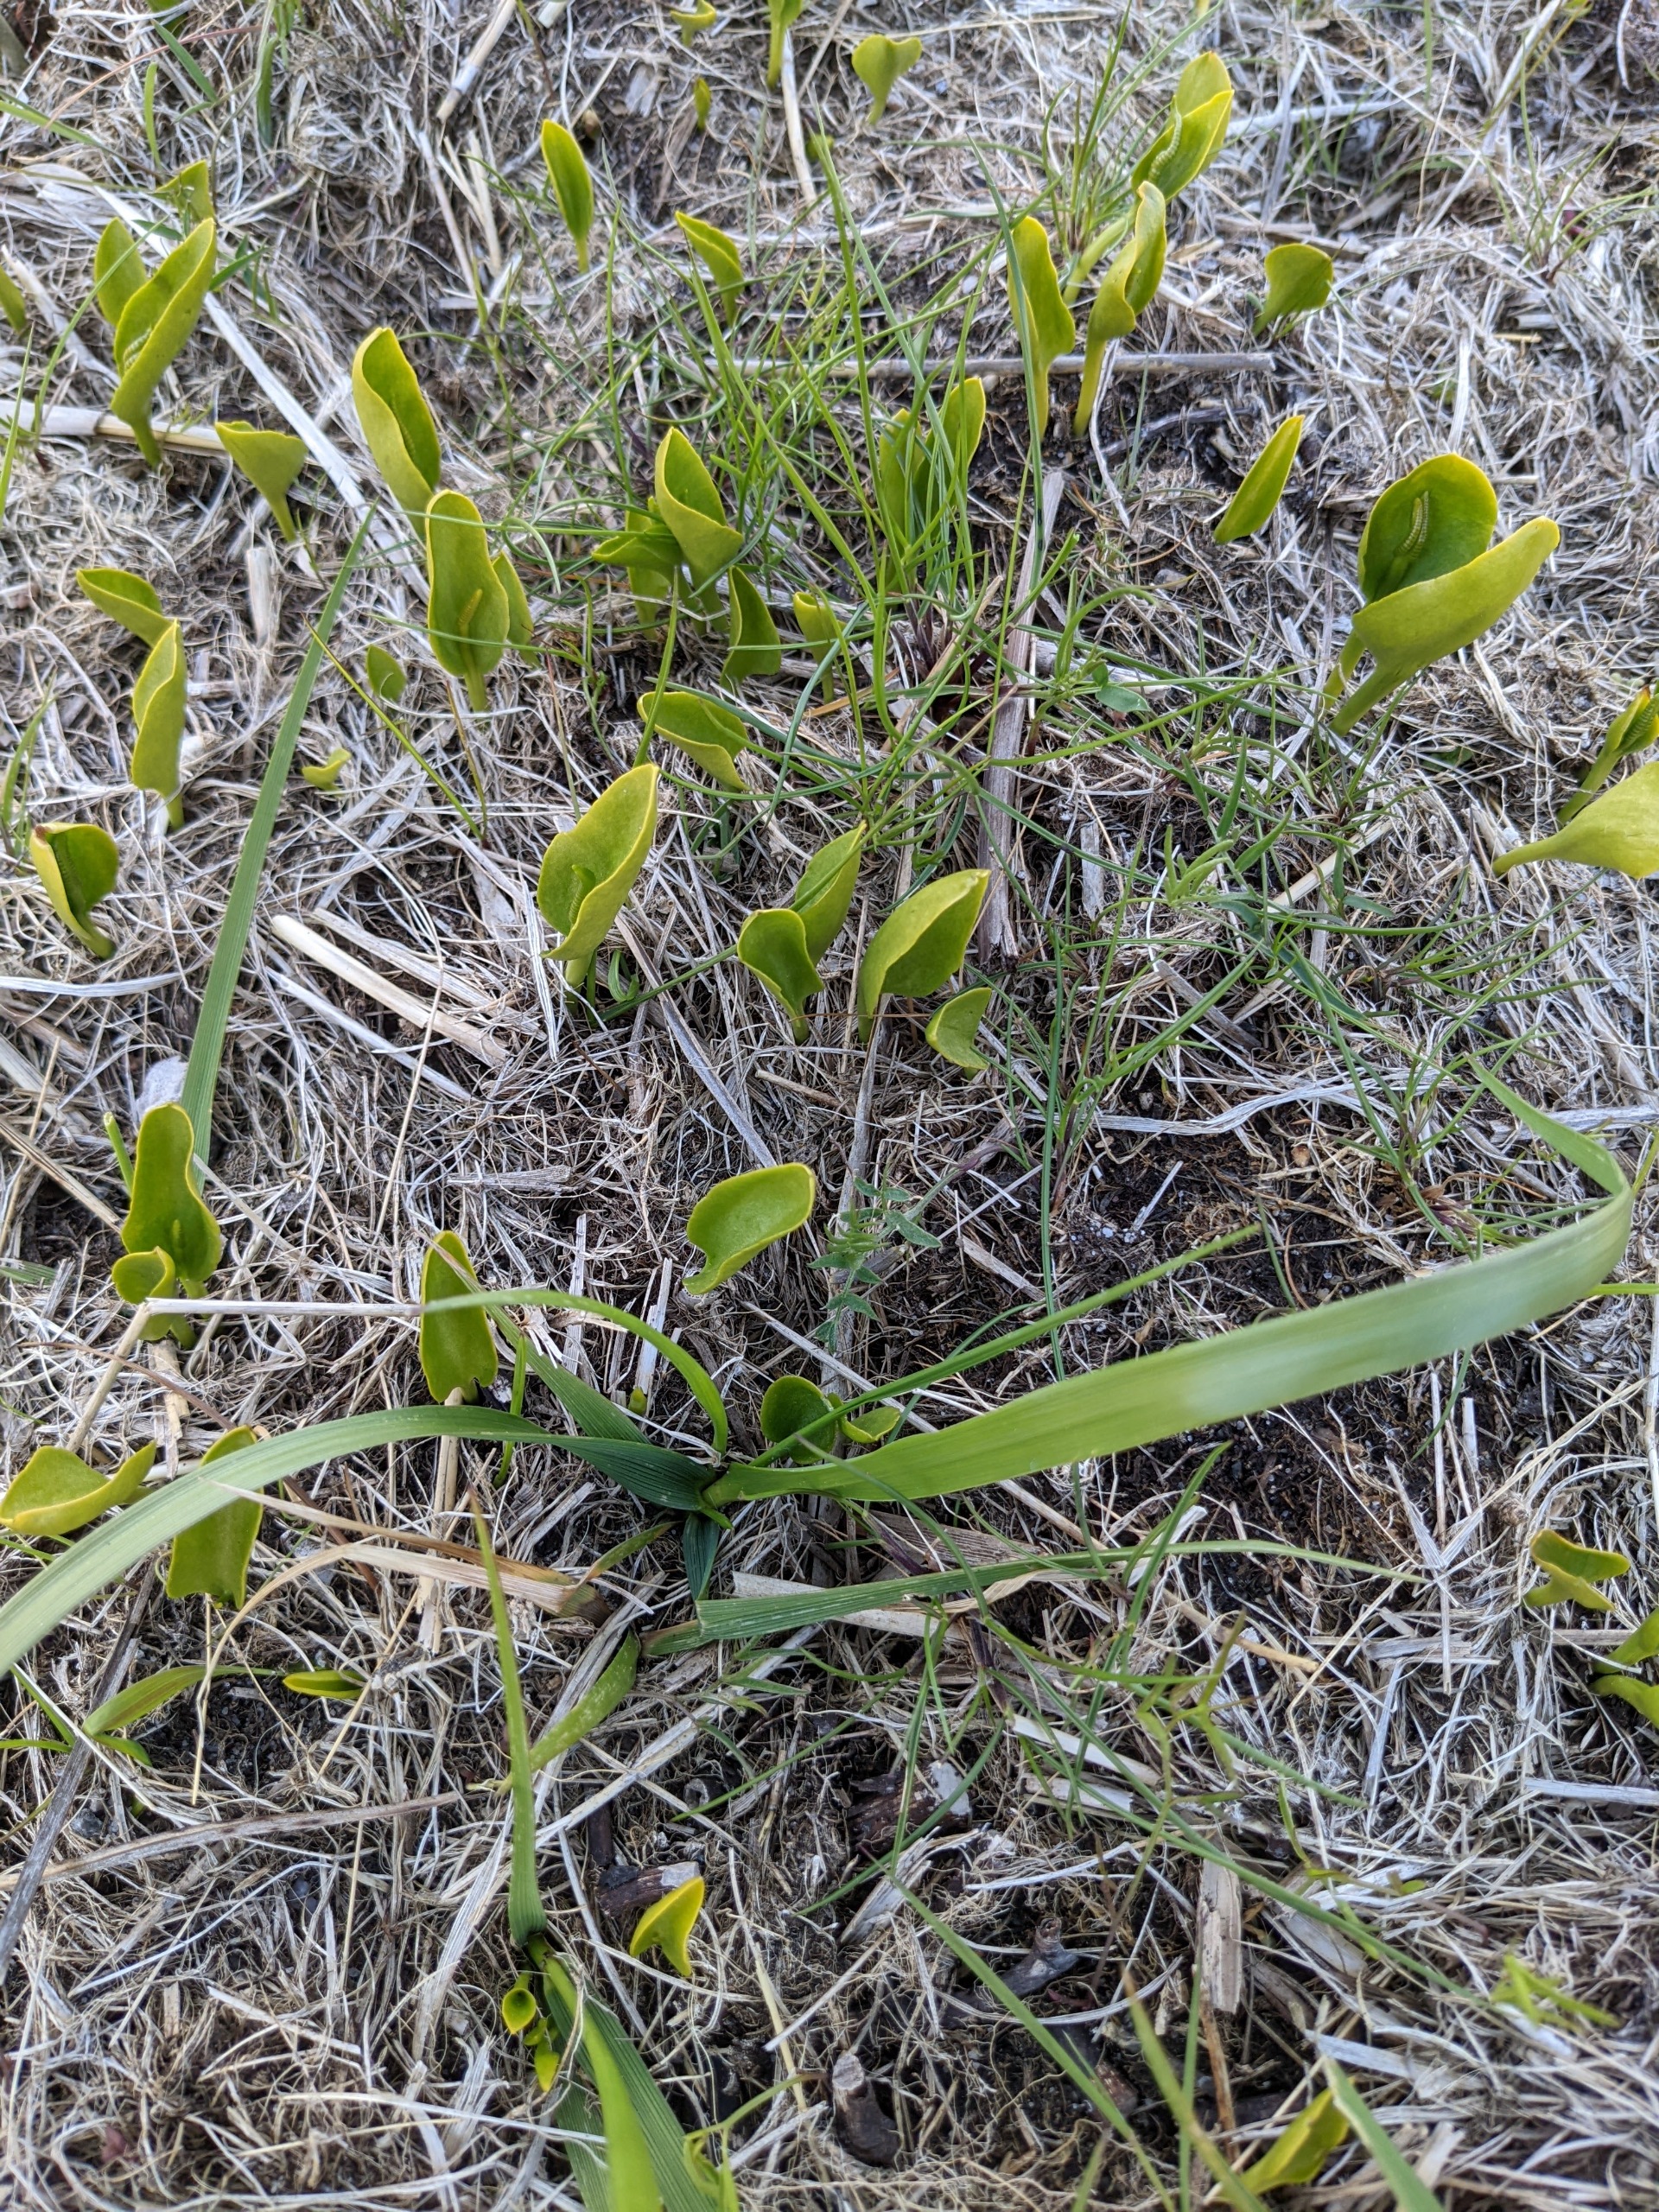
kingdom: Plantae
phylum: Tracheophyta
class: Polypodiopsida
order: Ophioglossales
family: Ophioglossaceae
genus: Ophioglossum
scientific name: Ophioglossum vulgatum
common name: Slangetunge
